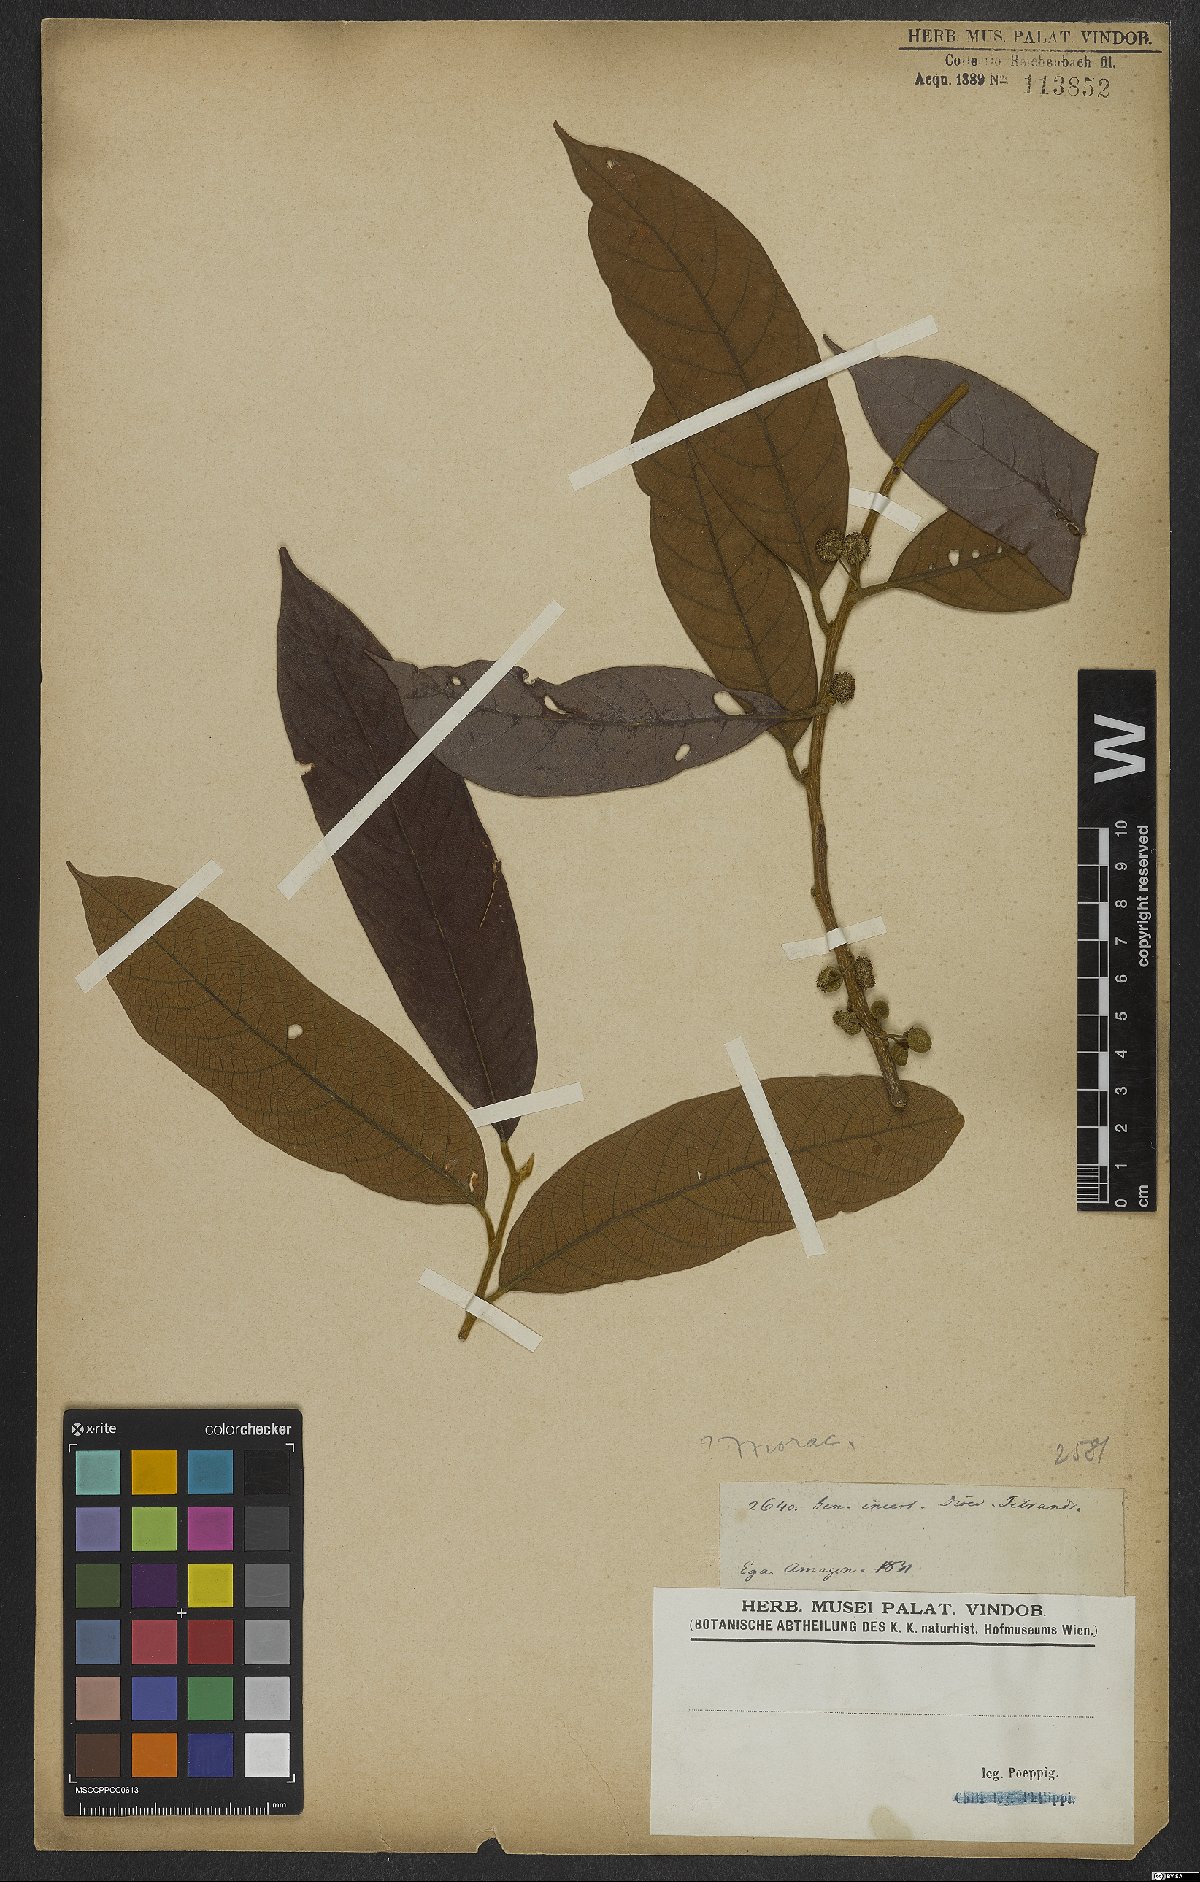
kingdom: Plantae
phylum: Tracheophyta
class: Magnoliopsida
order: Rosales
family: Moraceae
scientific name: Moraceae
